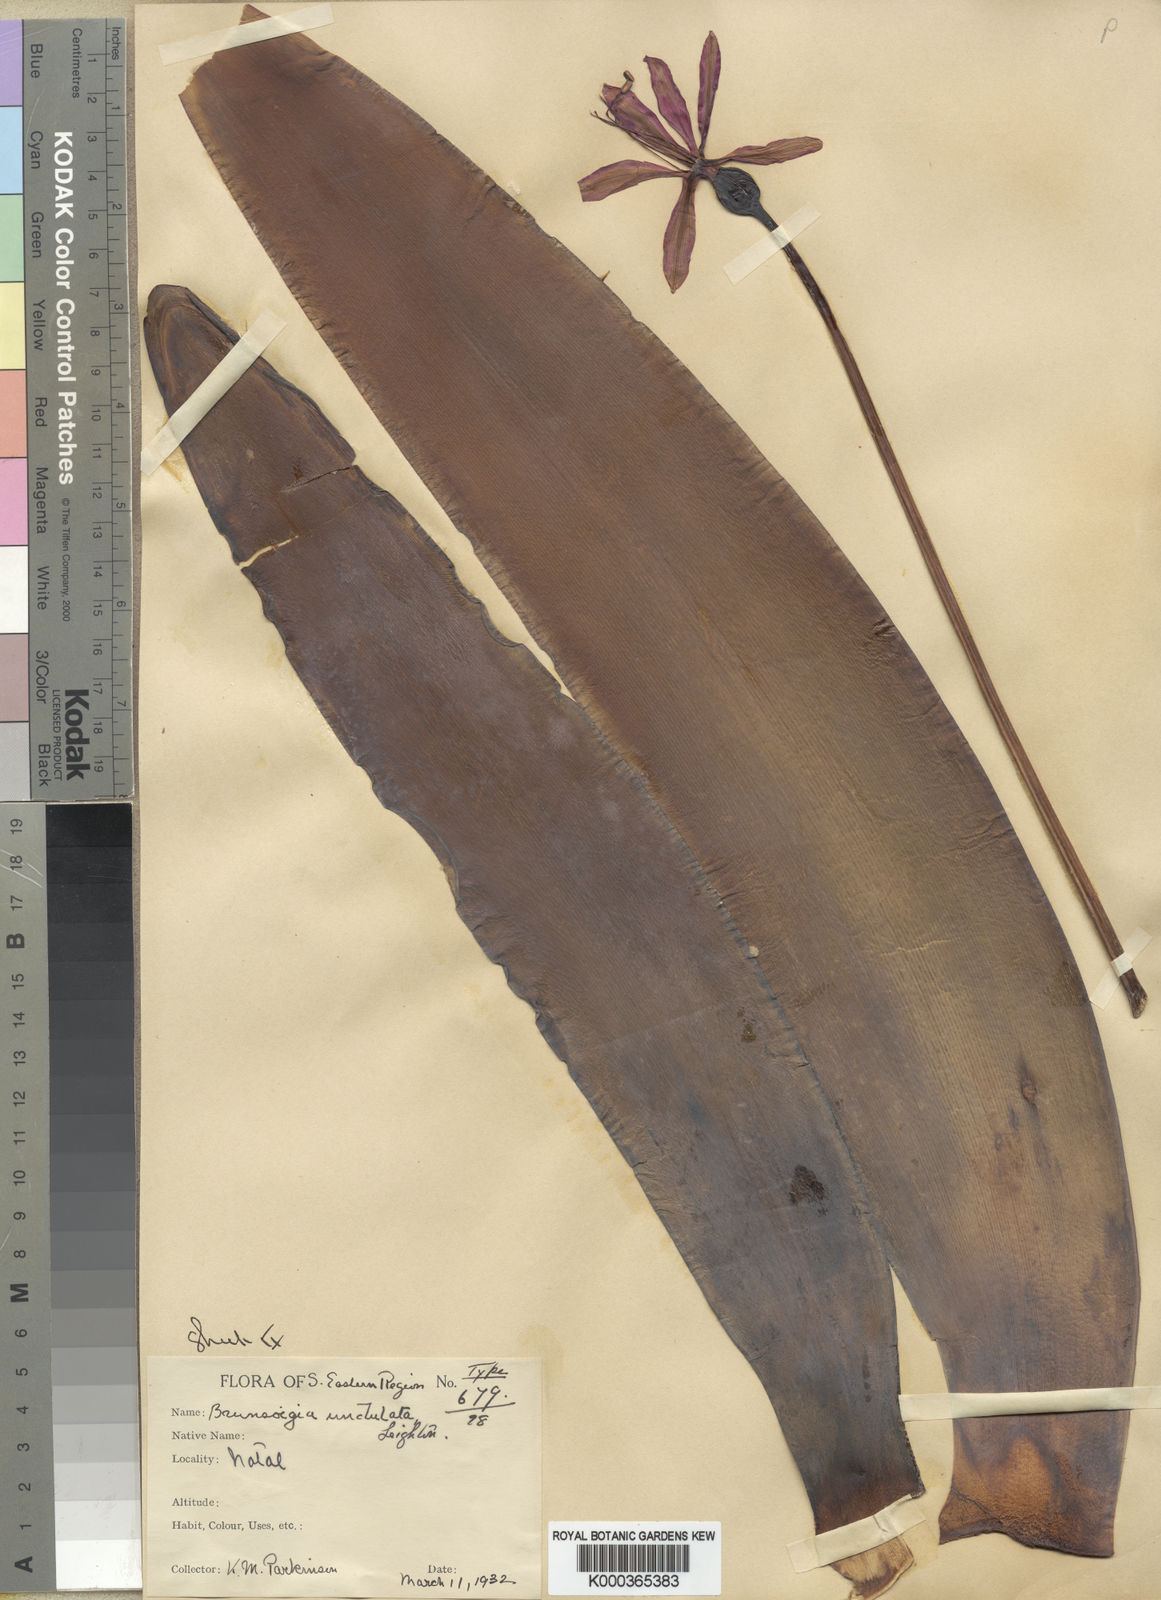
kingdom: Plantae
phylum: Tracheophyta
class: Liliopsida
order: Asparagales
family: Amaryllidaceae
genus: Brunsvigia
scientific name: Brunsvigia undulata
